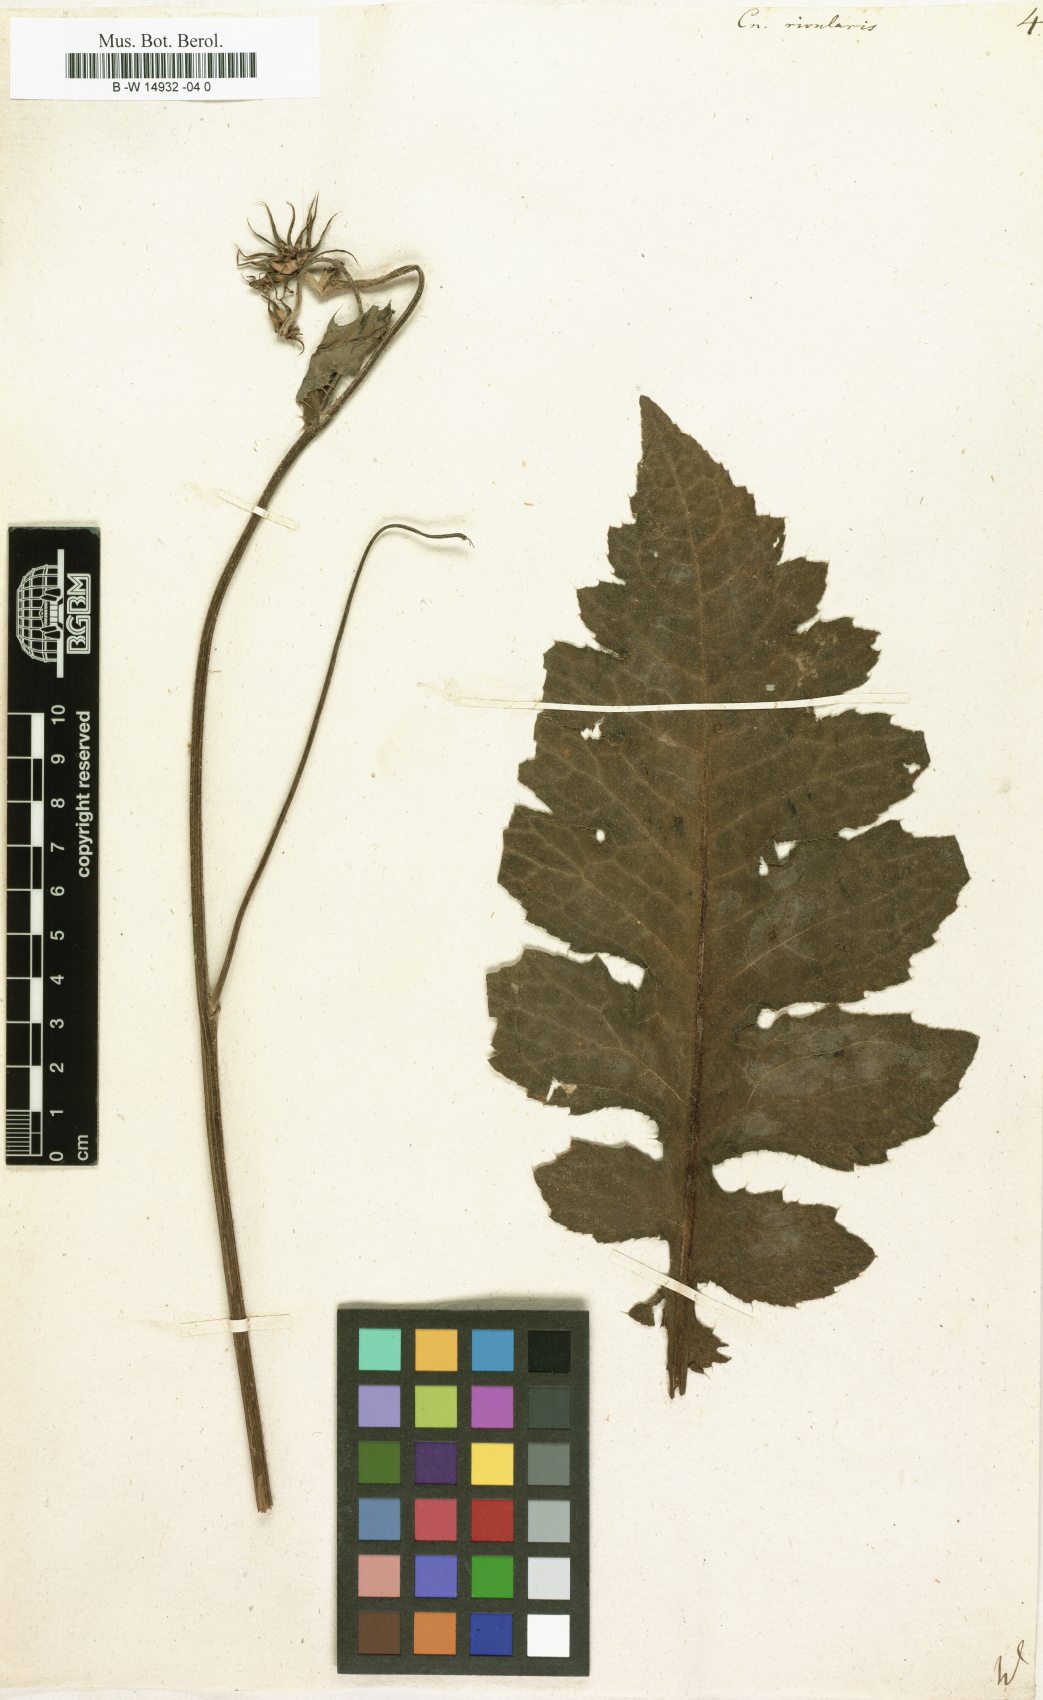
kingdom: Plantae
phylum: Tracheophyta
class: Magnoliopsida
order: Asterales
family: Asteraceae
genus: Cirsium
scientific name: Cirsium
